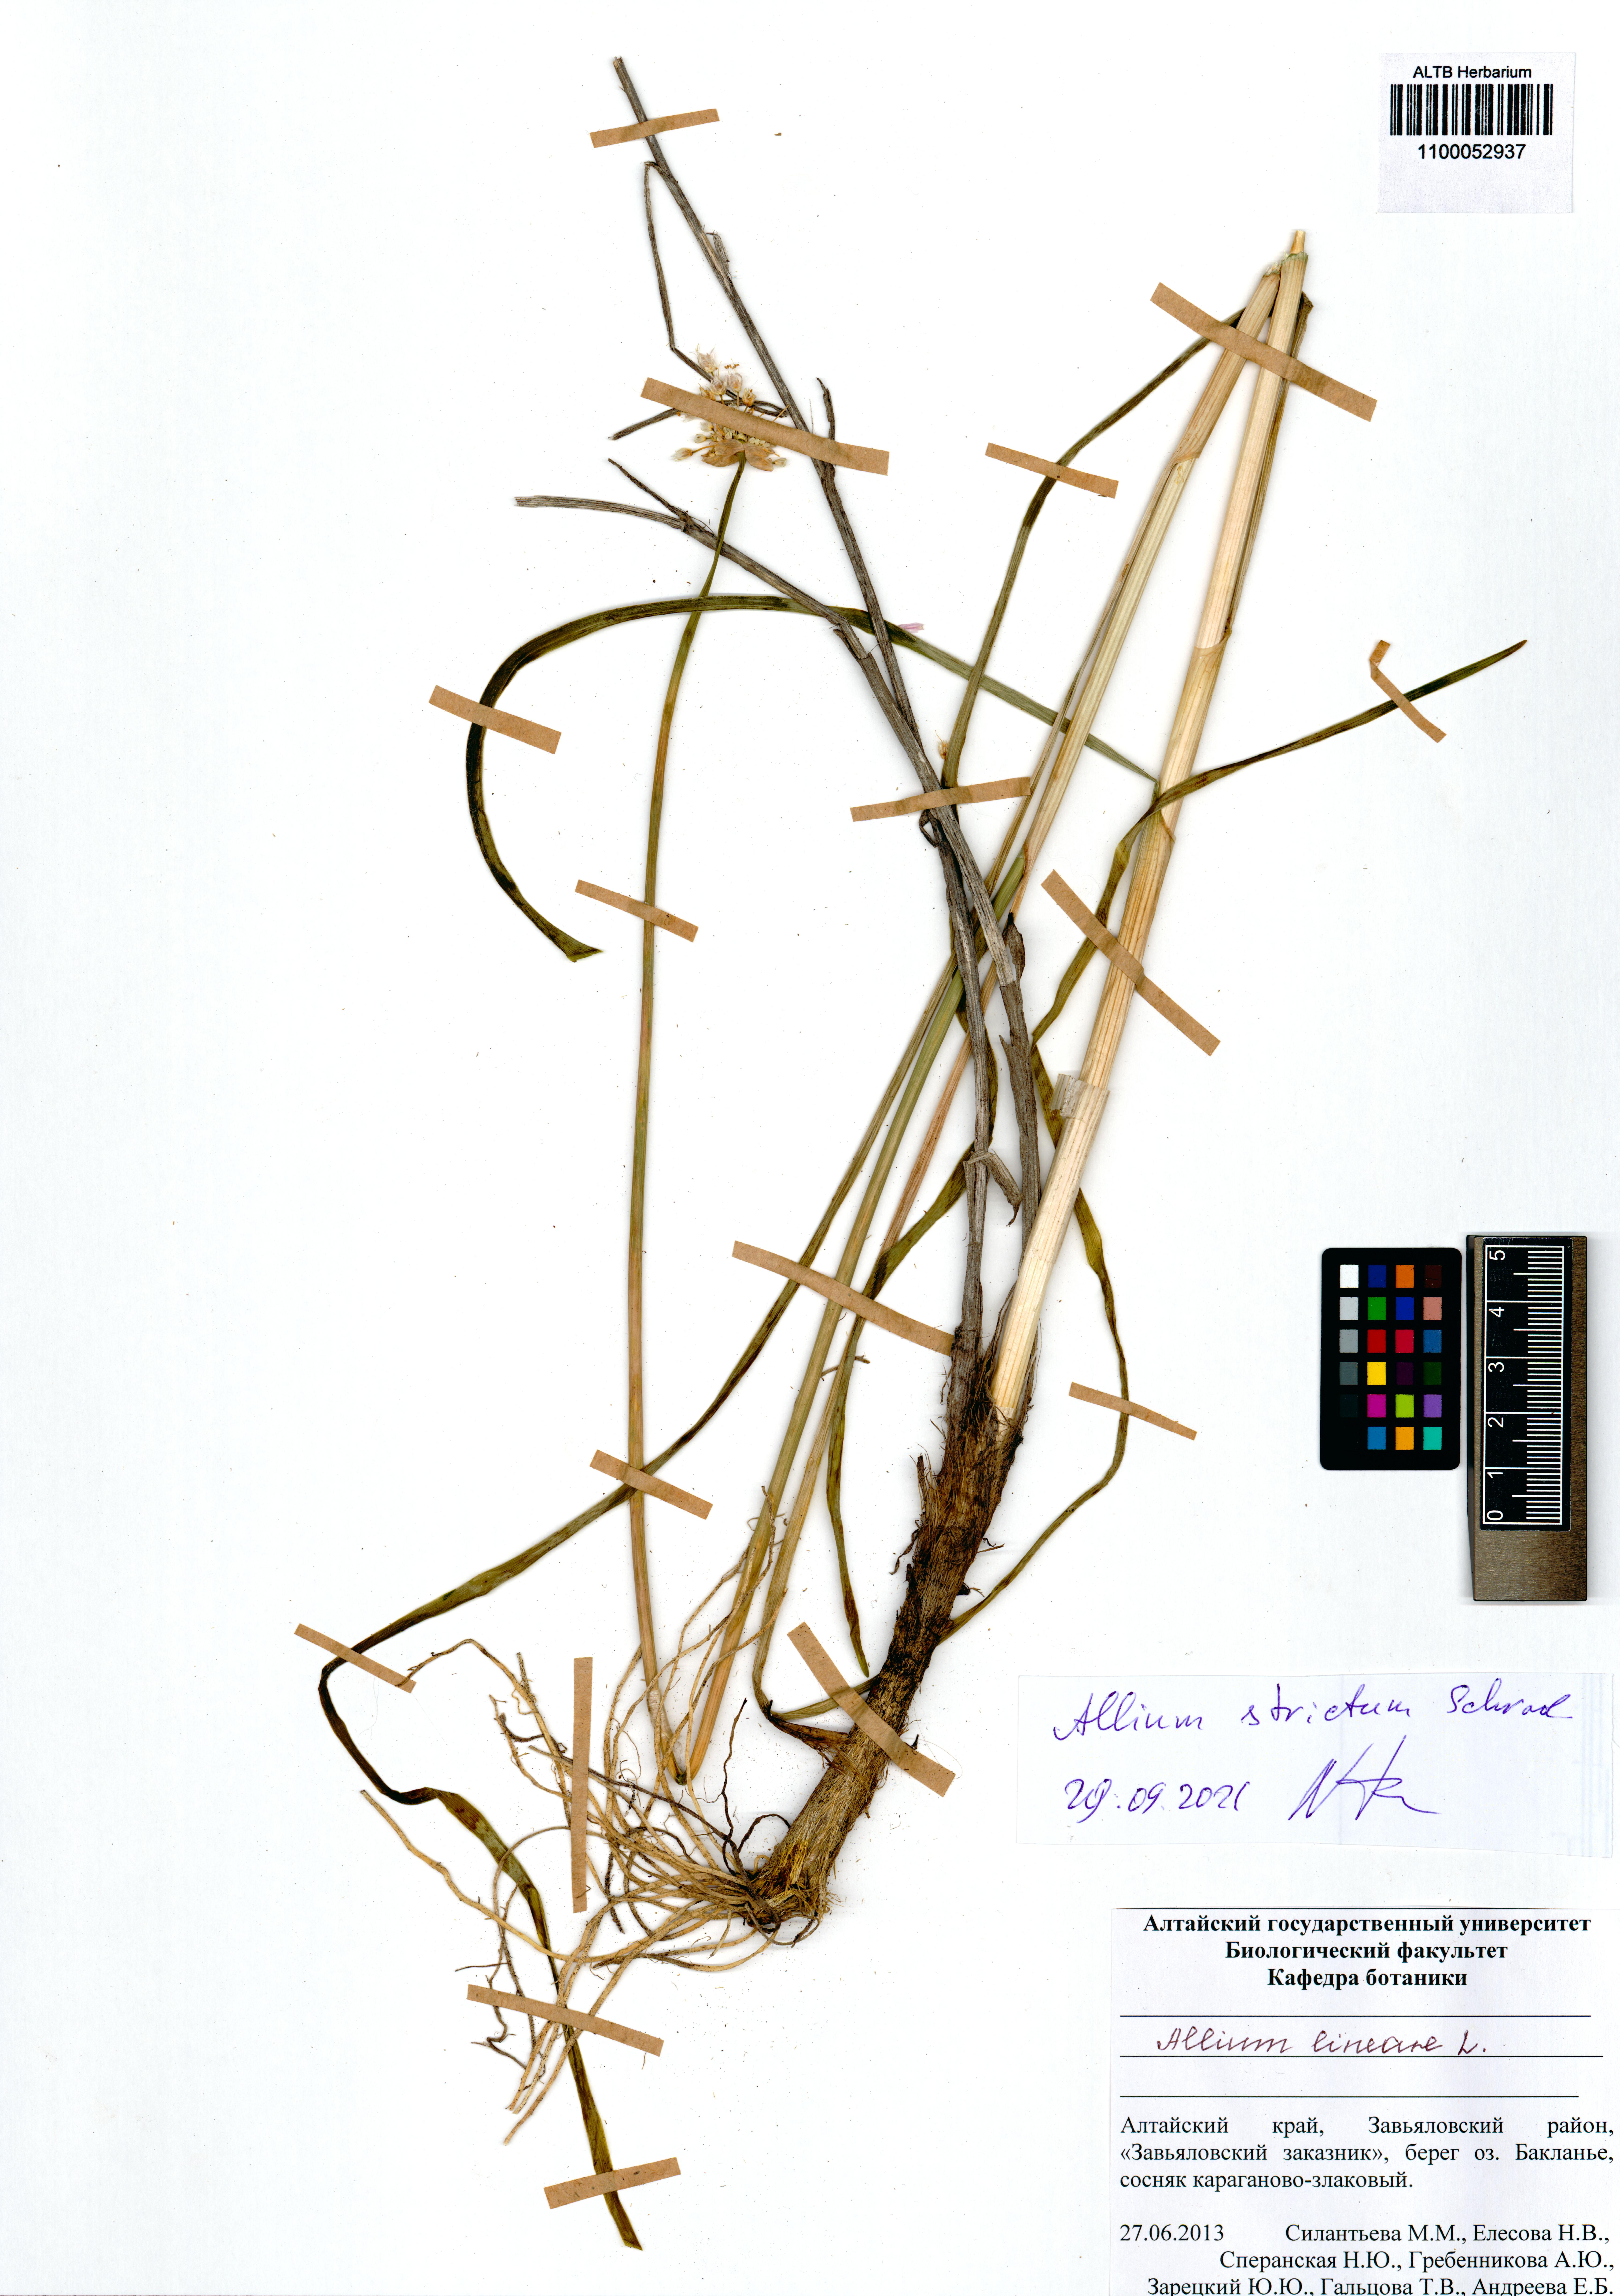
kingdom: Plantae
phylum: Tracheophyta
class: Liliopsida
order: Asparagales
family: Amaryllidaceae
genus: Allium
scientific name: Allium strictum
